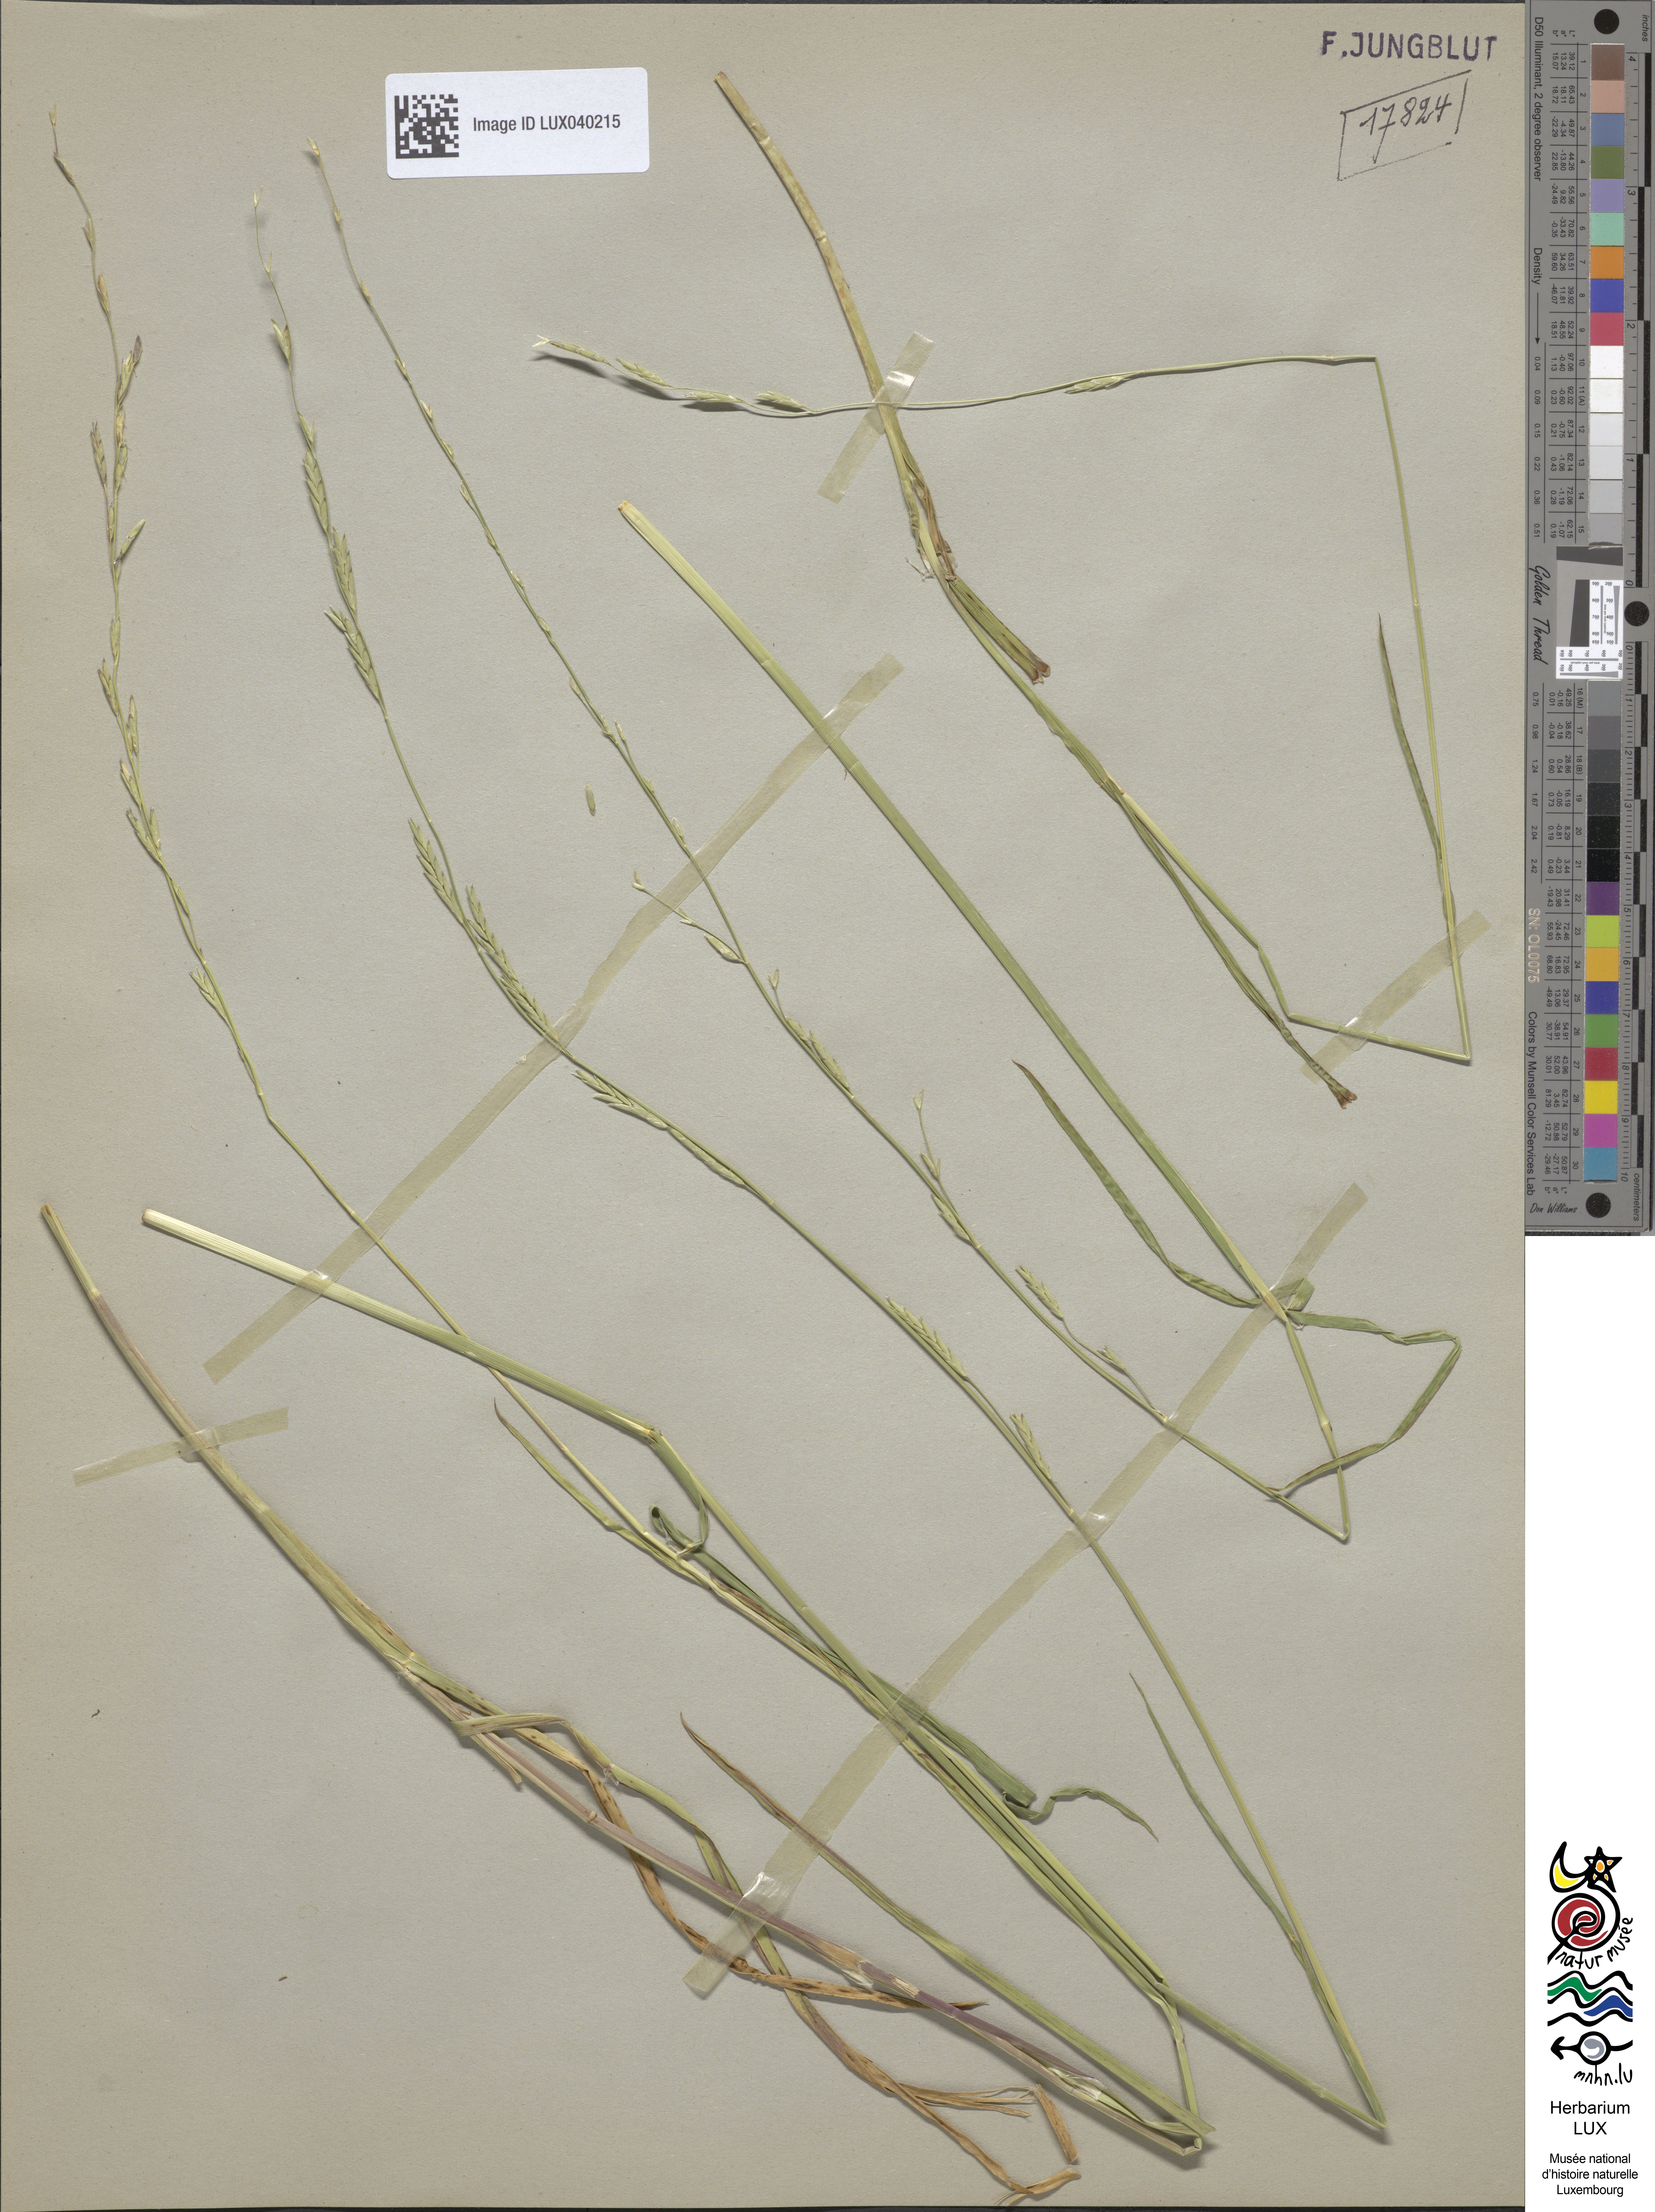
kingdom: Plantae
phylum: Tracheophyta
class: Liliopsida
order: Poales
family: Poaceae
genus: Glyceria
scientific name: Glyceria fluitans
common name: Floating sweet-grass
